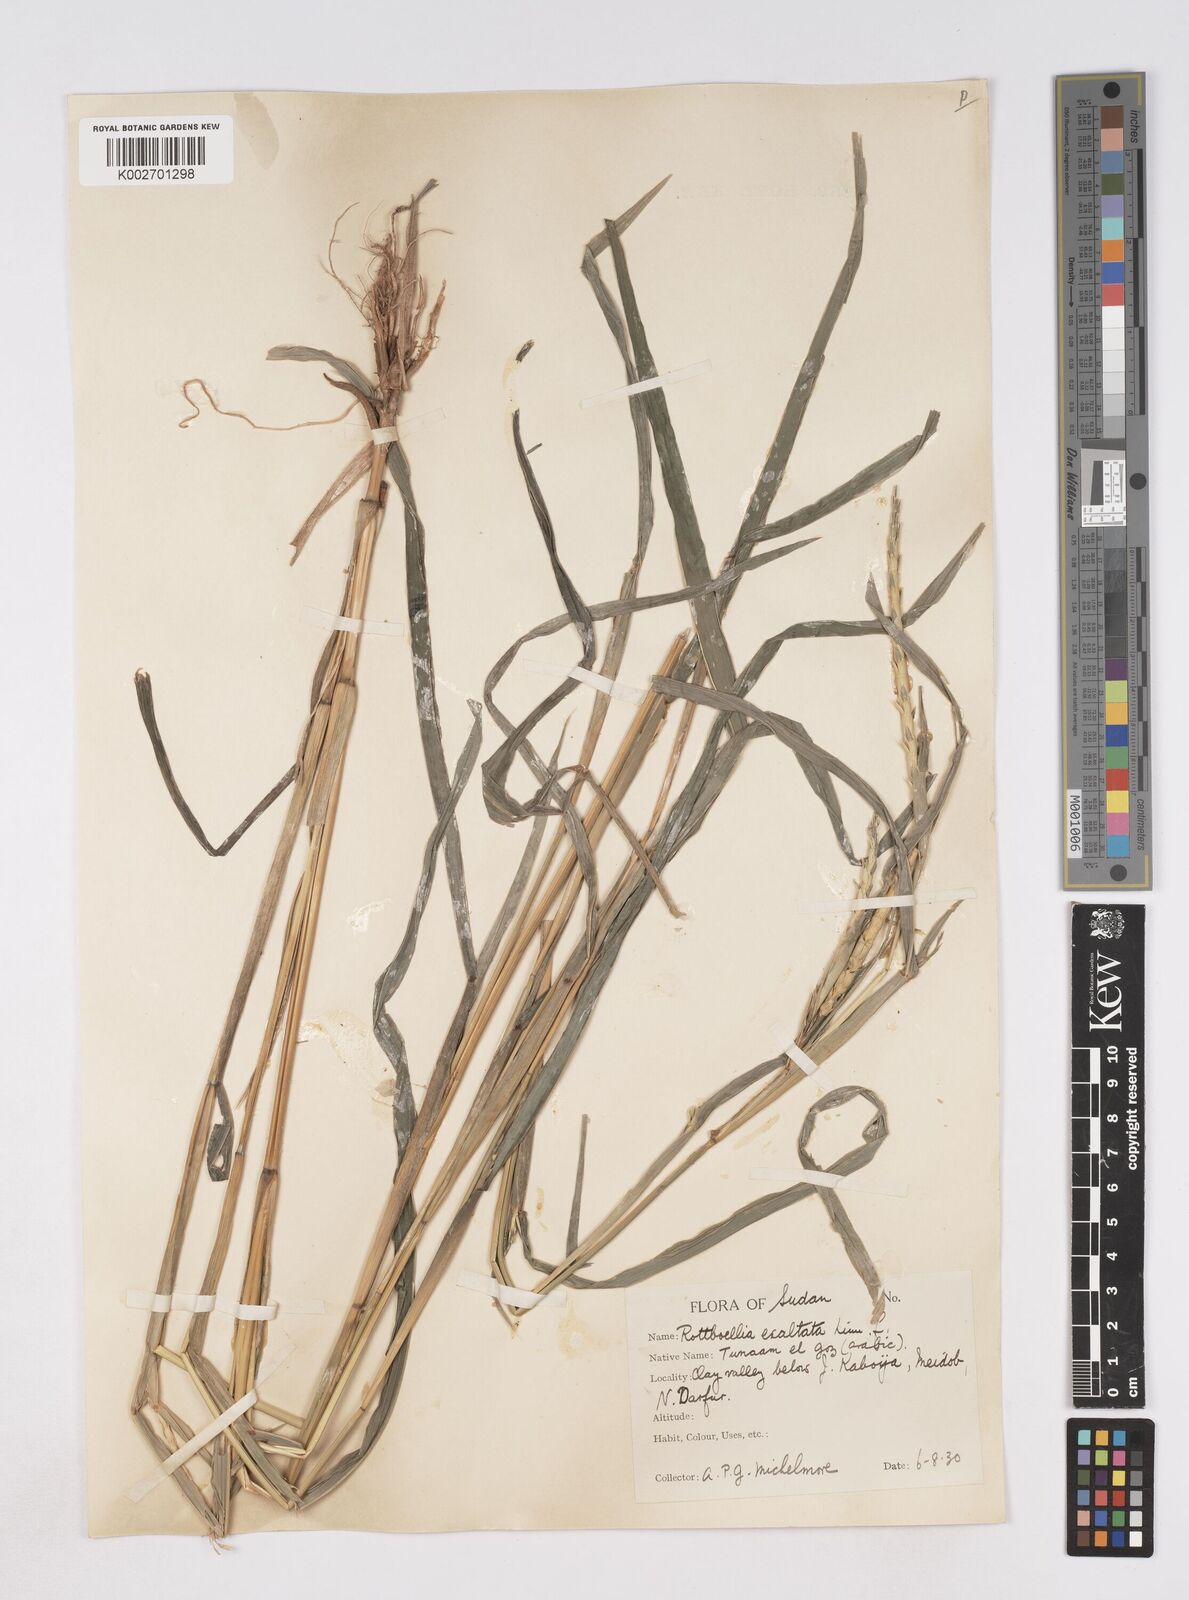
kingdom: Plantae
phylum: Tracheophyta
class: Liliopsida
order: Poales
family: Poaceae
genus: Rottboellia
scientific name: Rottboellia cochinchinensis
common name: Itchgrass
